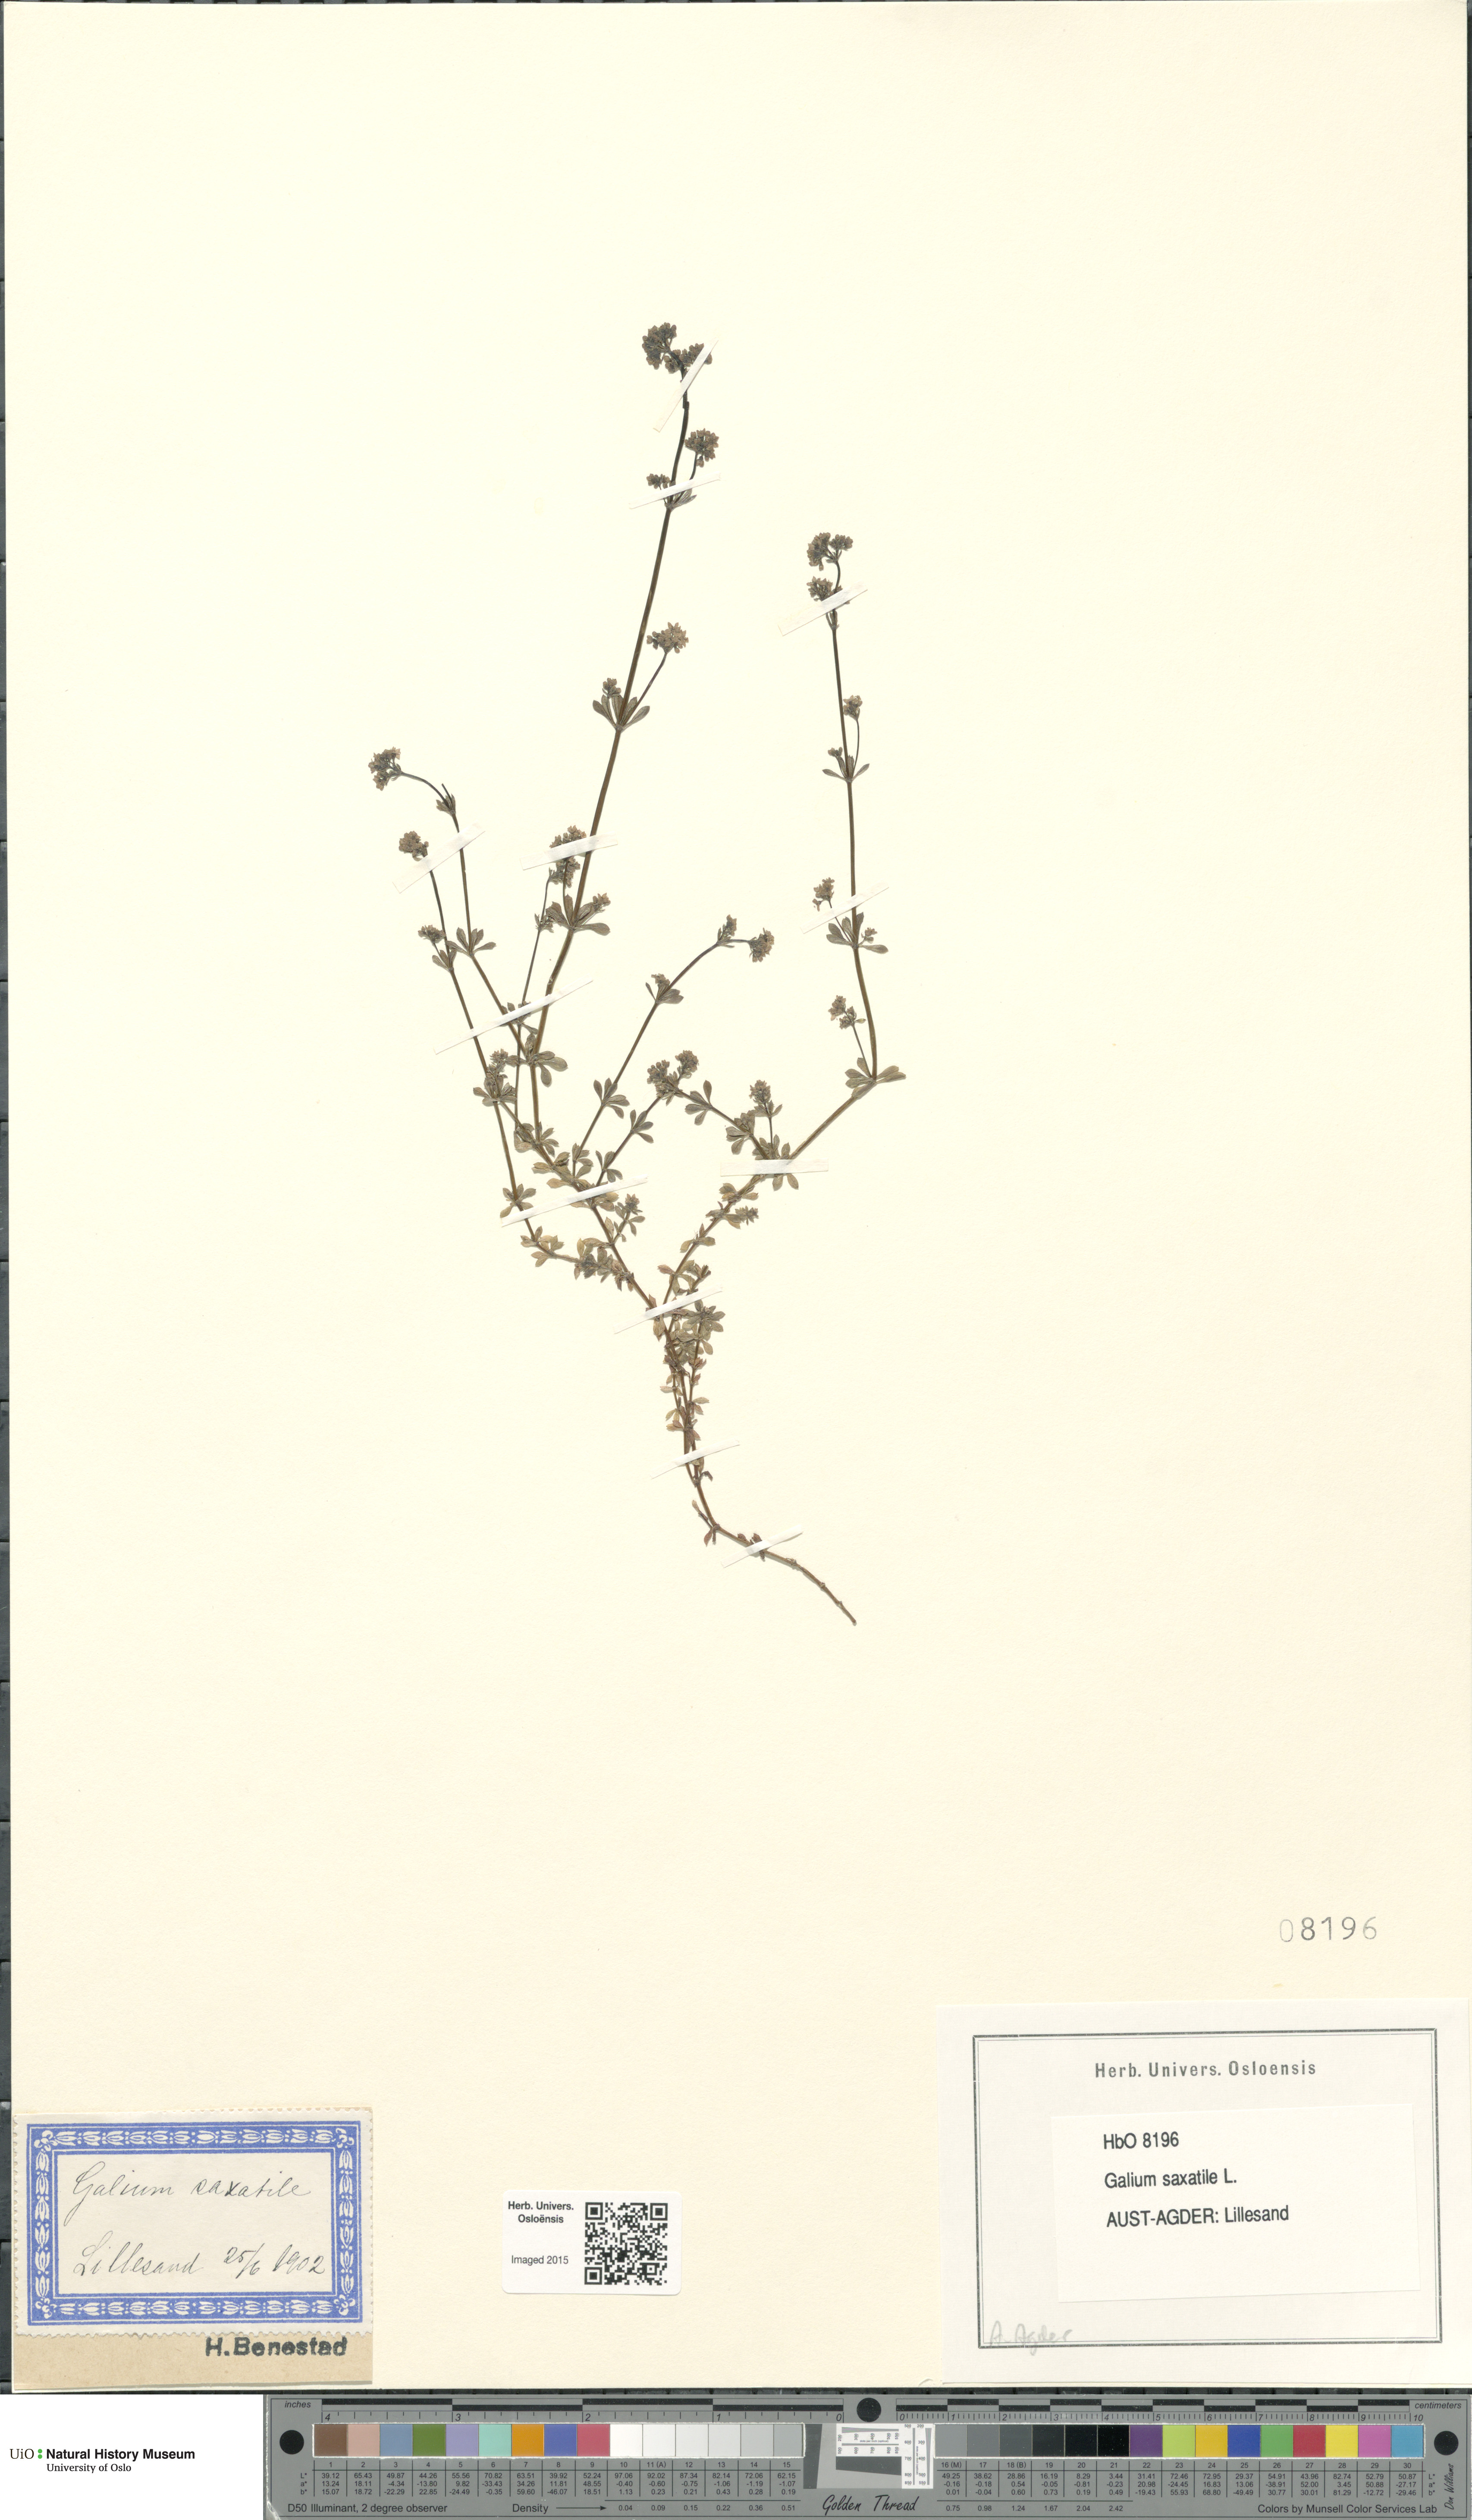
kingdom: Plantae
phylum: Tracheophyta
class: Magnoliopsida
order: Gentianales
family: Rubiaceae
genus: Galium
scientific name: Galium saxatile
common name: Heath bedstraw
